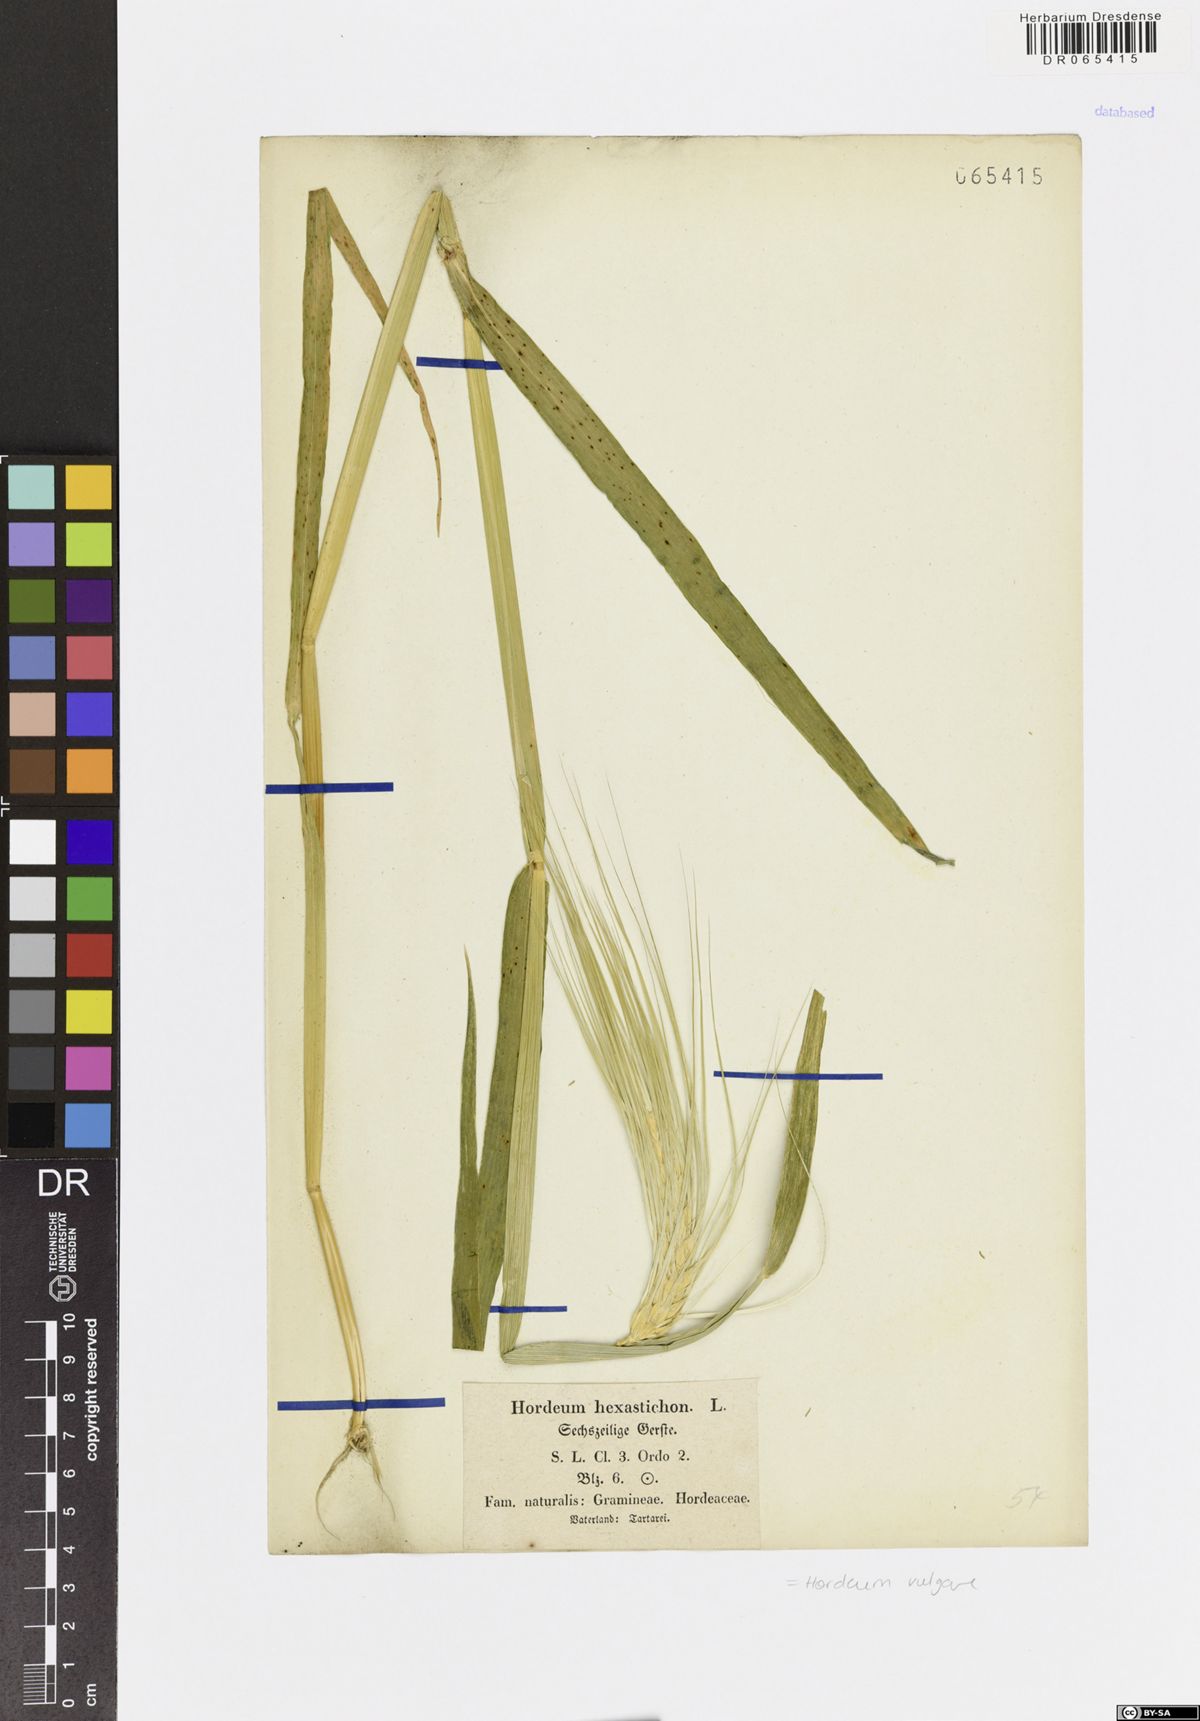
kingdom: Plantae
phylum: Tracheophyta
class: Liliopsida
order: Poales
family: Poaceae
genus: Hordeum
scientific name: Hordeum vulgare
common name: Common barley
